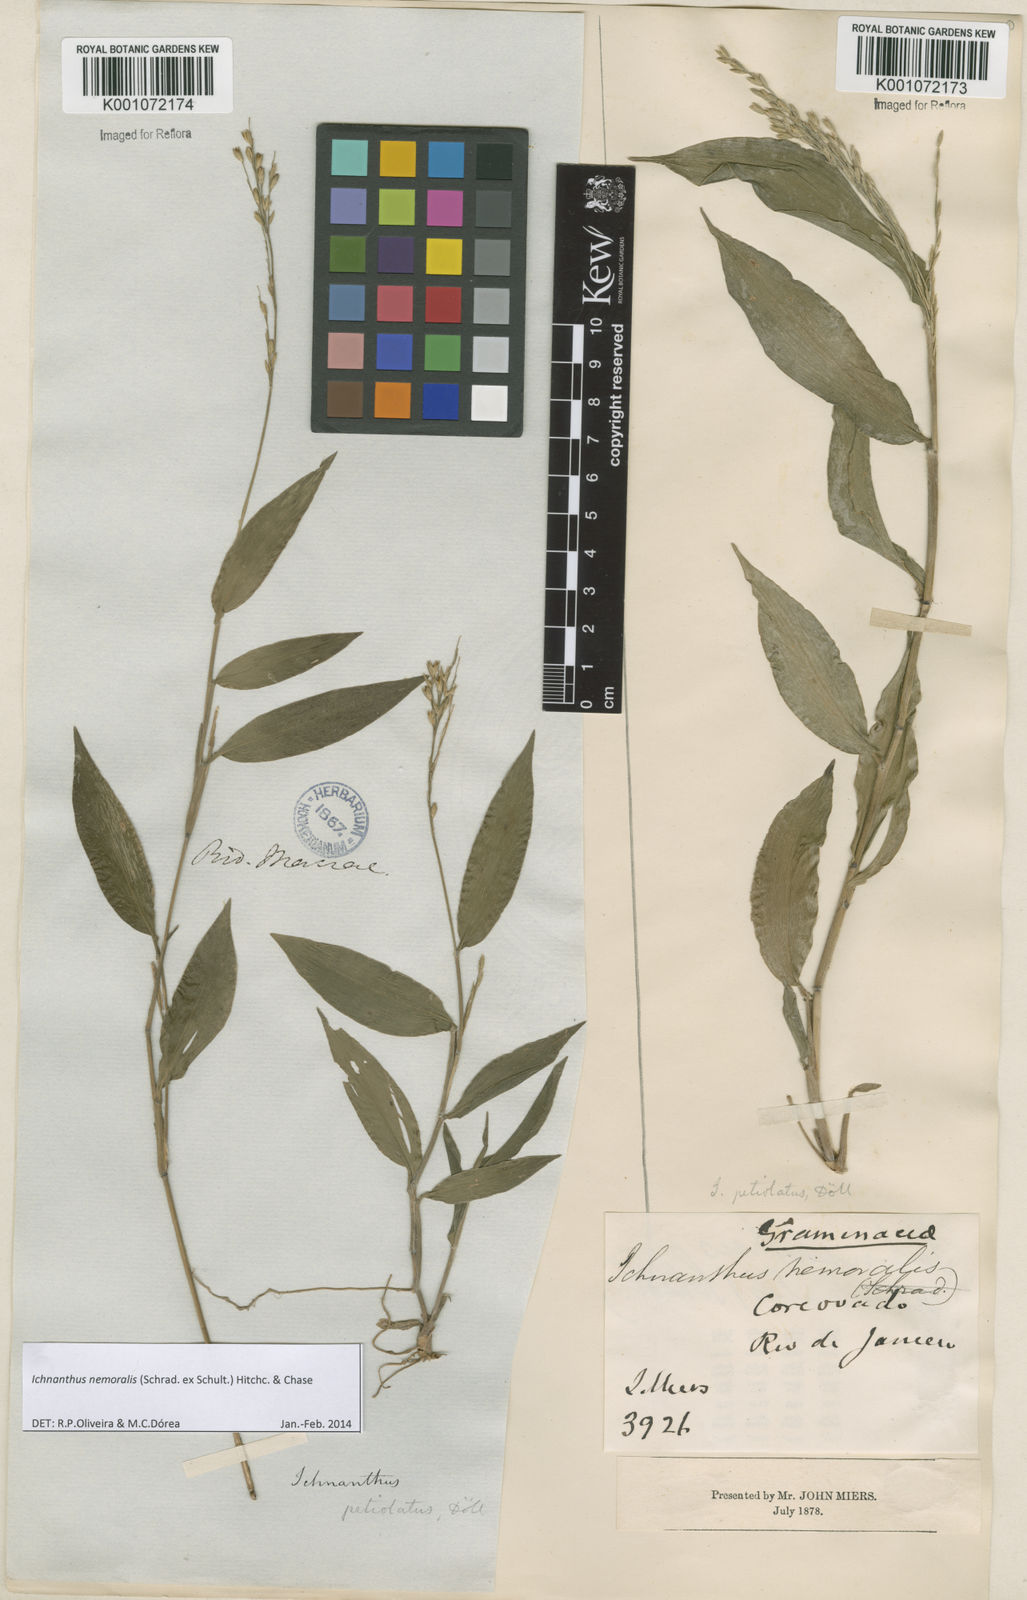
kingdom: Plantae
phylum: Tracheophyta
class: Liliopsida
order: Poales
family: Poaceae
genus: Ichnanthus
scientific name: Ichnanthus nemoralis
